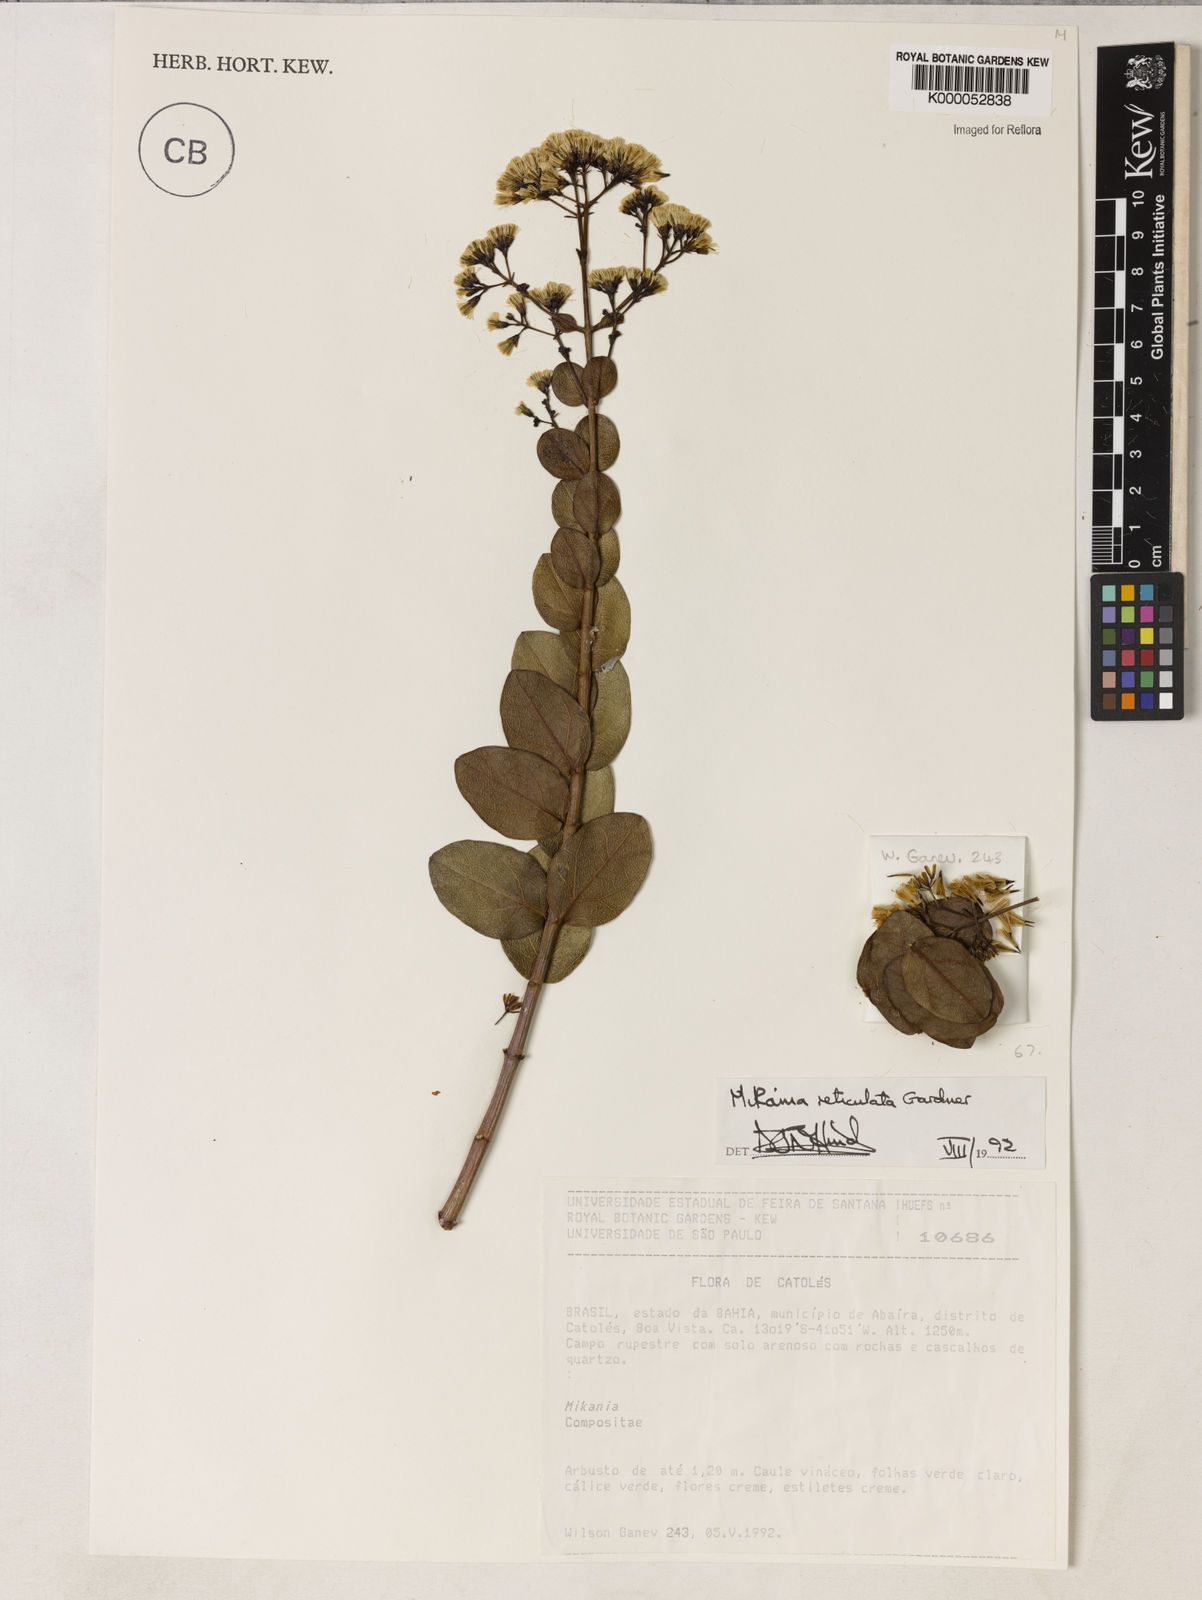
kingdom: Plantae
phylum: Tracheophyta
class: Magnoliopsida
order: Asterales
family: Asteraceae
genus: Mikania
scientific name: Mikania reticulata
